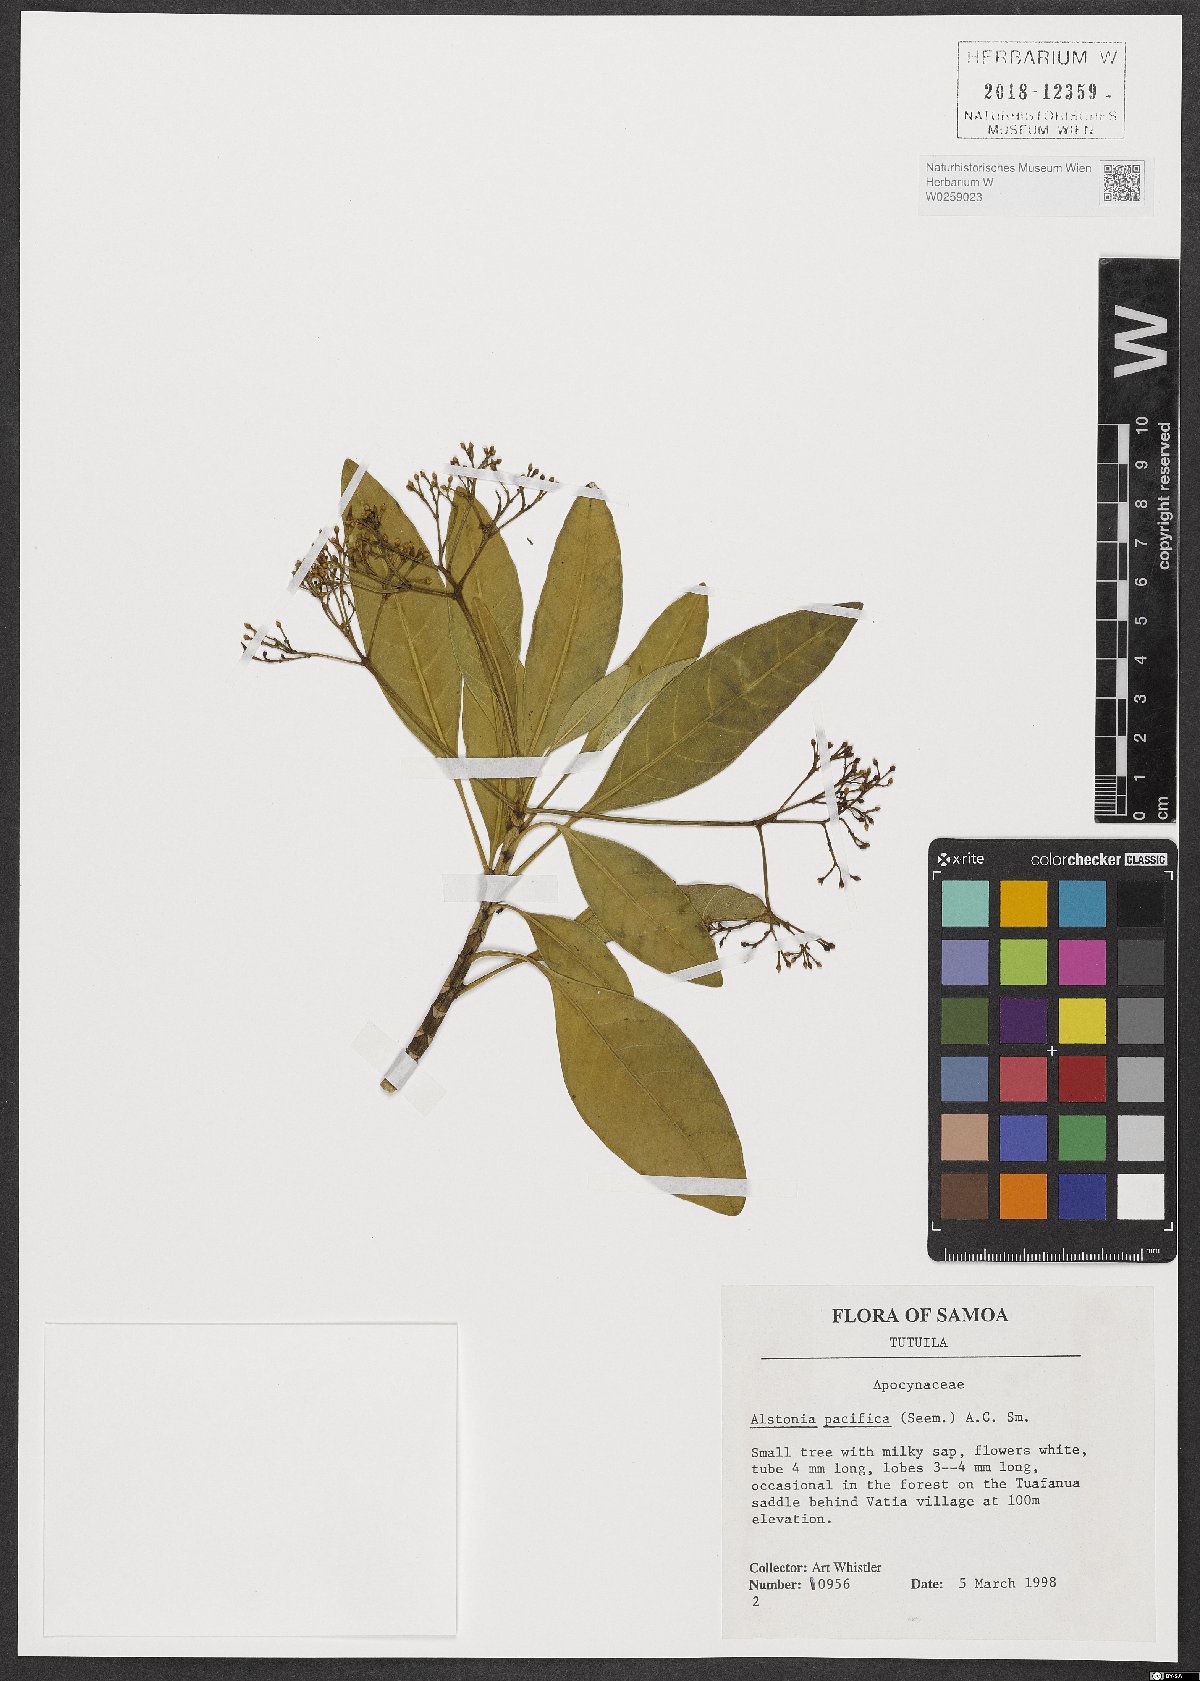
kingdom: Plantae
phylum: Tracheophyta
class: Magnoliopsida
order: Gentianales
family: Apocynaceae
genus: Alstonia
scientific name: Alstonia costata
